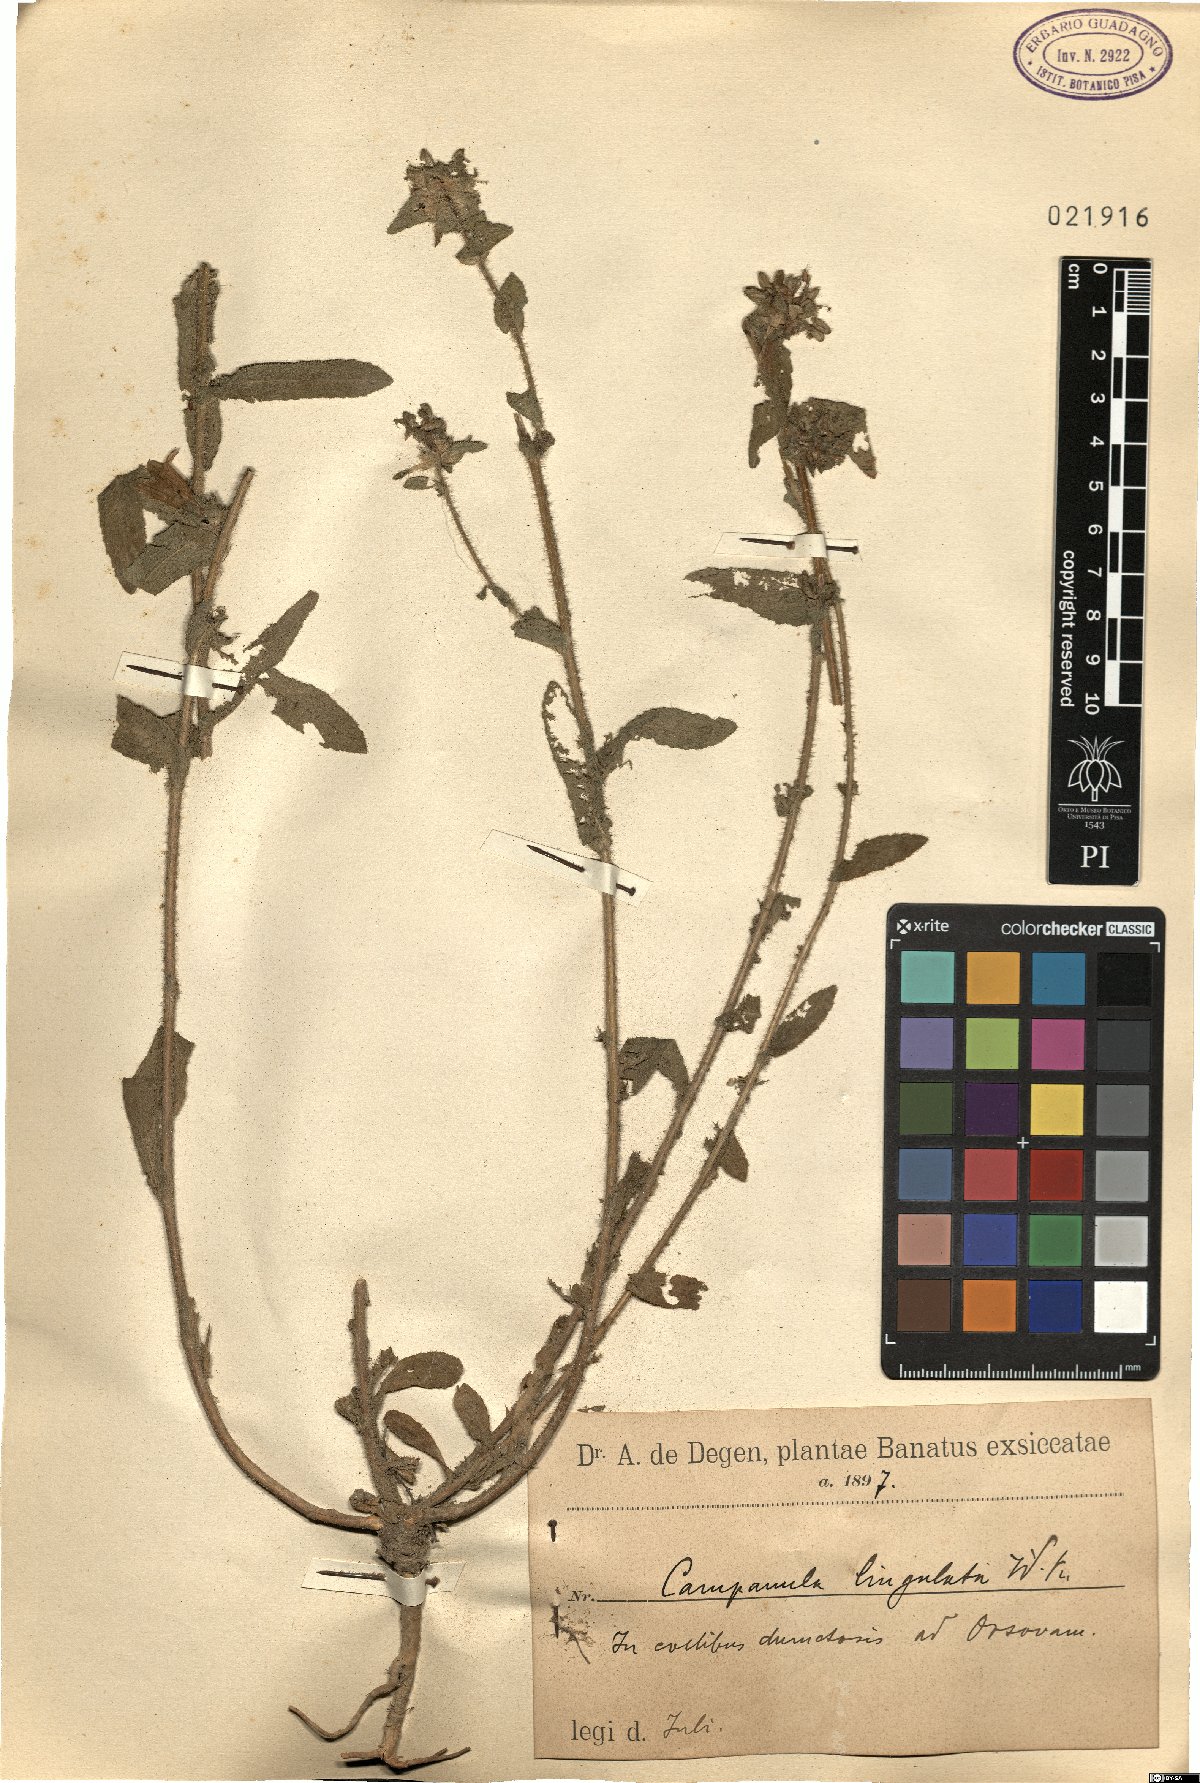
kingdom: Plantae
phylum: Tracheophyta
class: Magnoliopsida
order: Asterales
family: Campanulaceae
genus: Campanula
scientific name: Campanula lingulata
